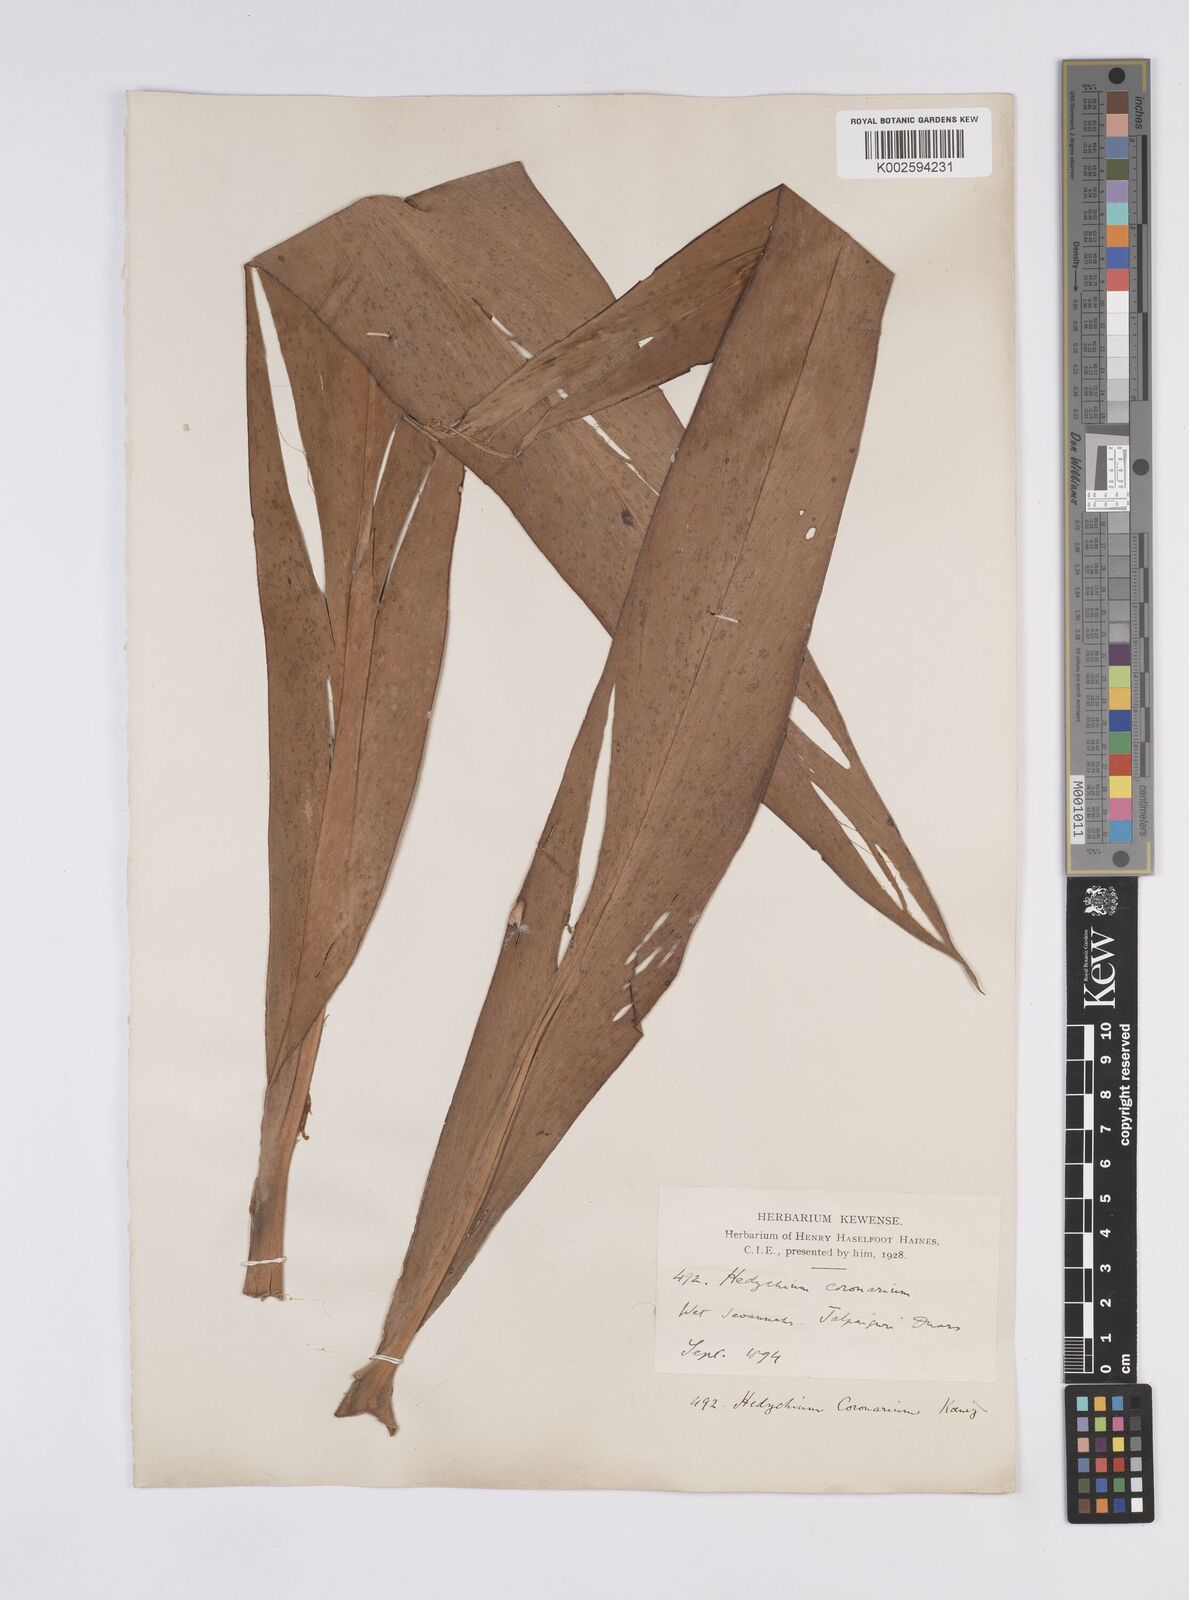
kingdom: Plantae
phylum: Tracheophyta
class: Liliopsida
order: Zingiberales
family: Zingiberaceae
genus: Hedychium
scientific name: Hedychium coronarium
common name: White garland-lily
